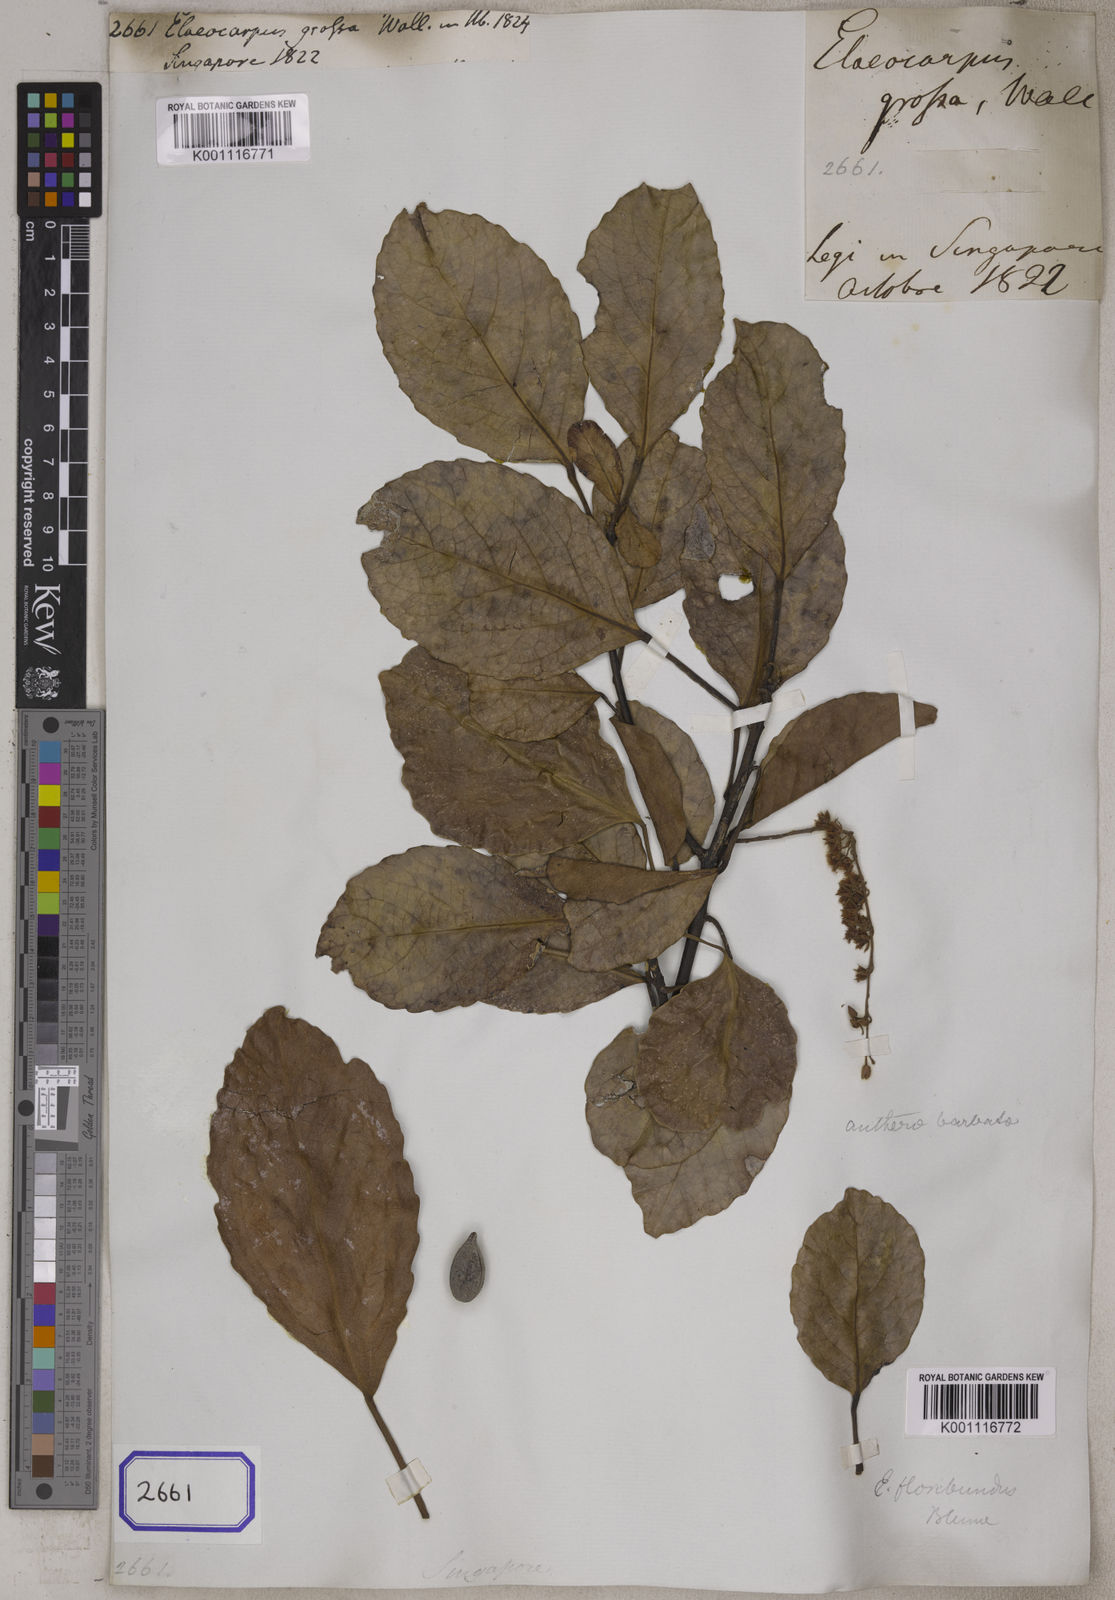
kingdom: Plantae
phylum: Tracheophyta
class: Magnoliopsida
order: Oxalidales
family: Elaeocarpaceae
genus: Elaeocarpus
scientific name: Elaeocarpus floribundus
